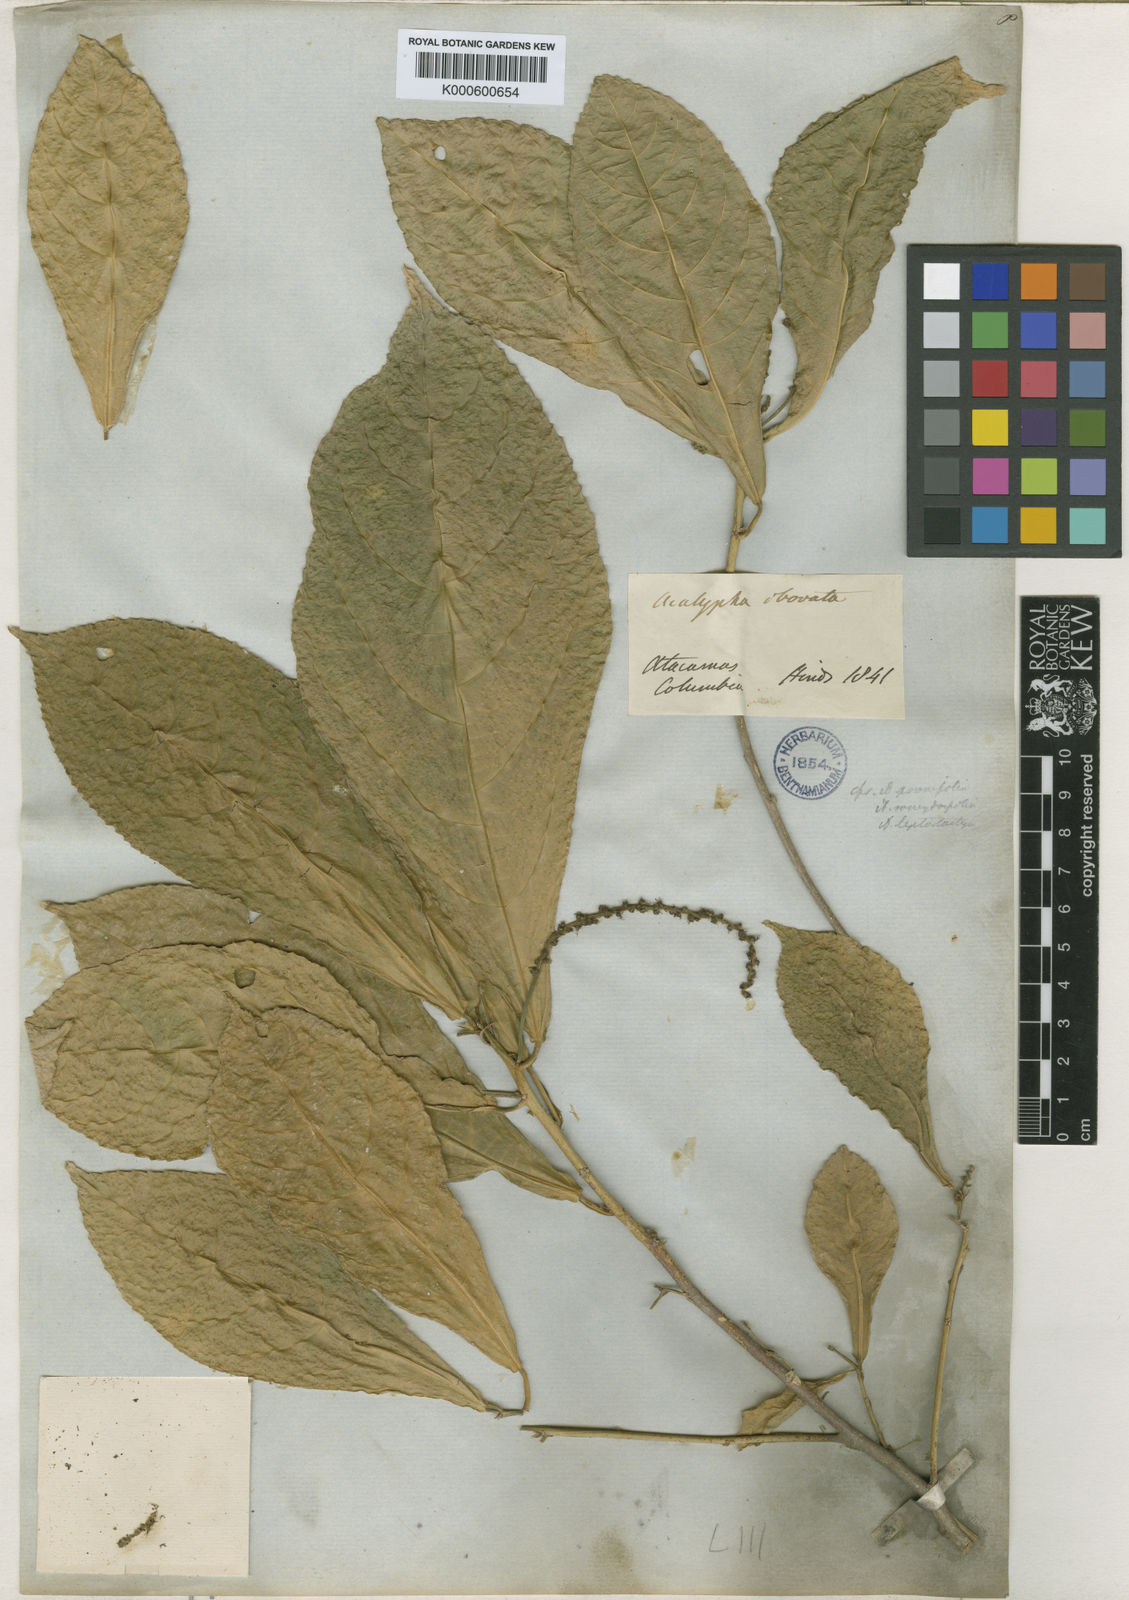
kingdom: Plantae
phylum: Tracheophyta
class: Magnoliopsida
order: Malpighiales
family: Euphorbiaceae
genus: Acalypha
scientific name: Acalypha cuneata
